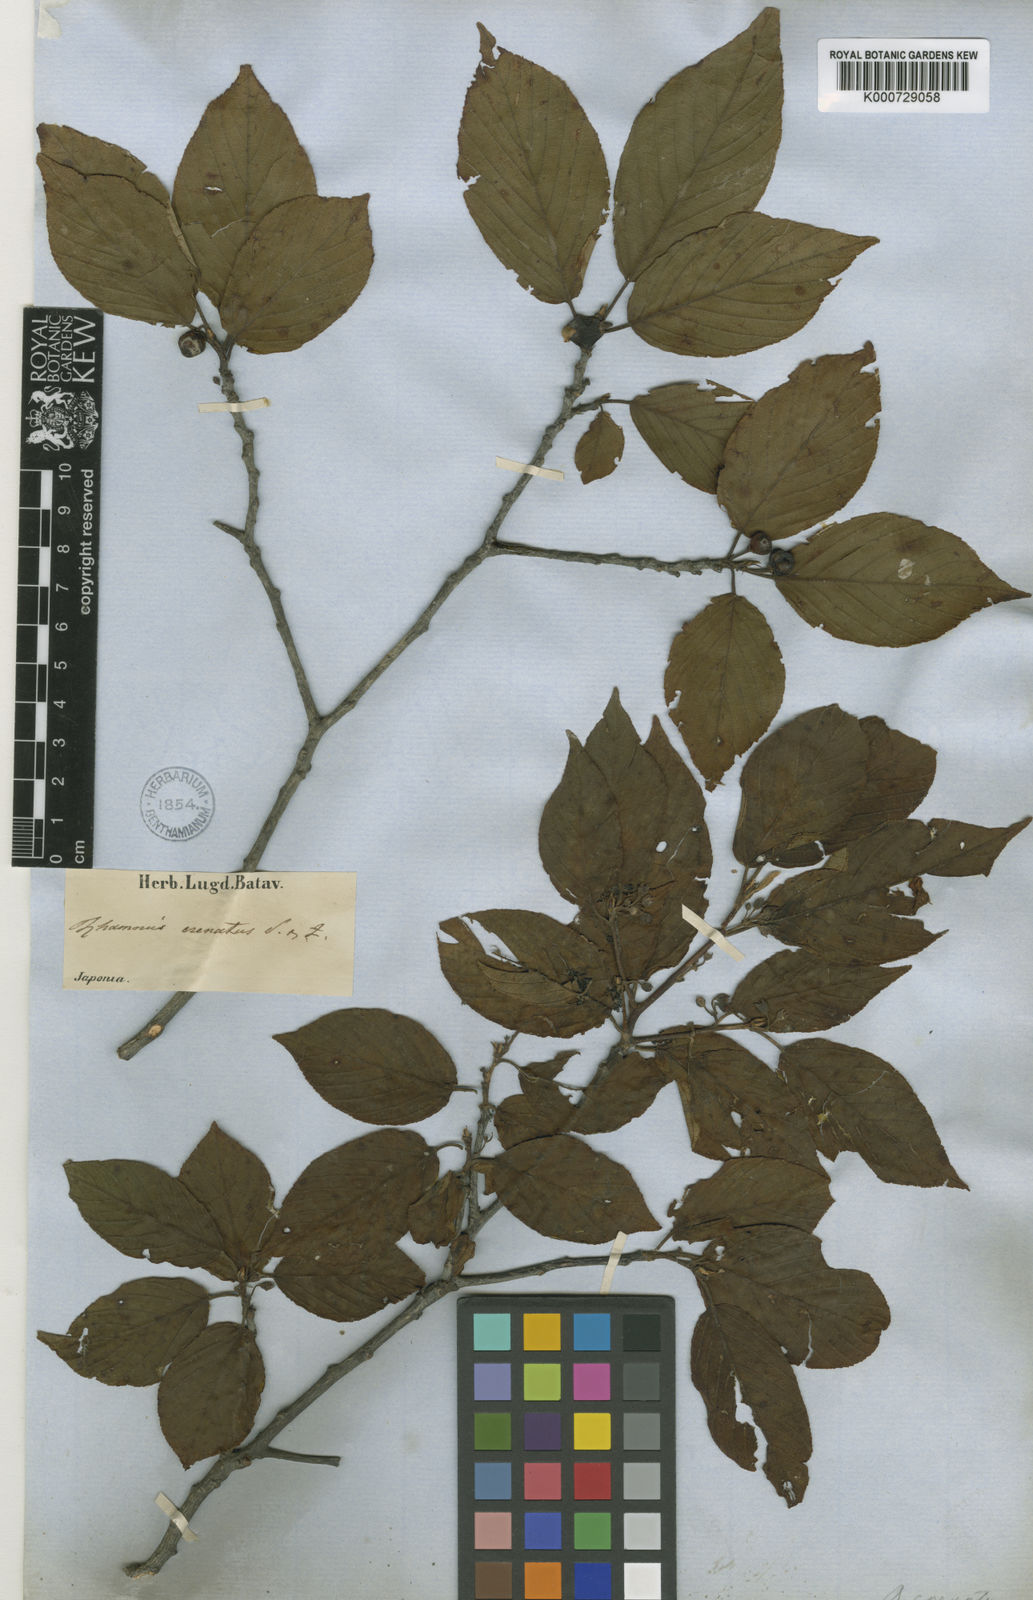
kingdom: Plantae
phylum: Tracheophyta
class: Magnoliopsida
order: Rosales
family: Rhamnaceae
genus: Frangula
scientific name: Frangula crenata
